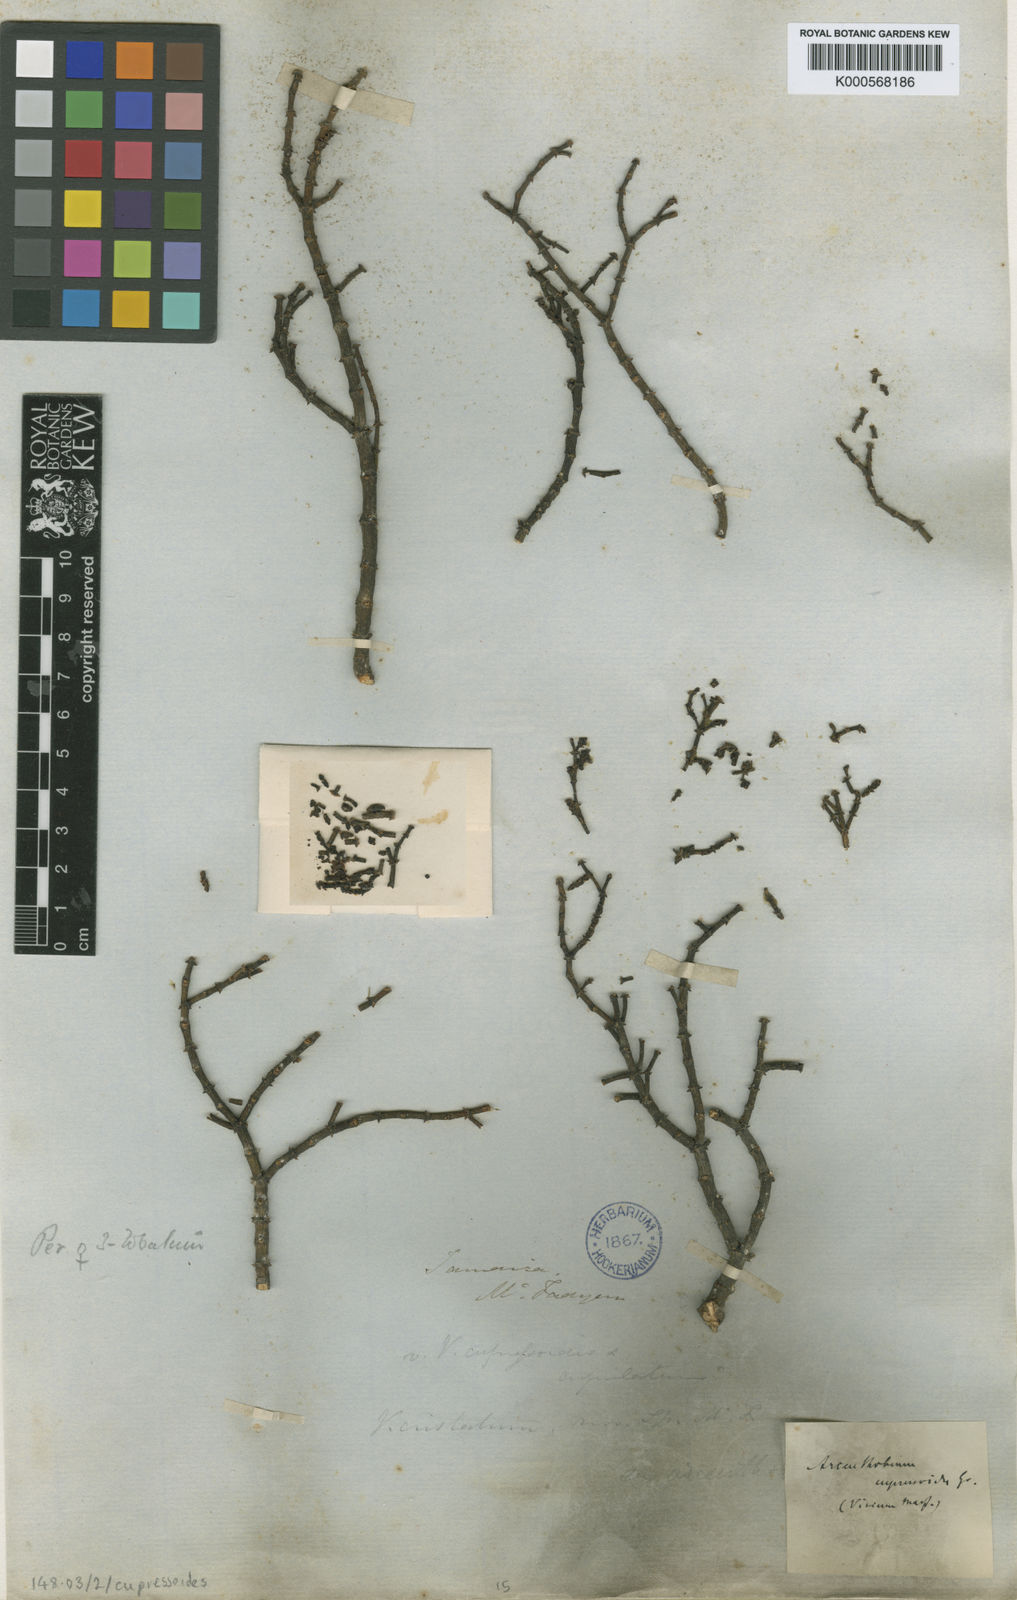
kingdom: Plantae
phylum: Tracheophyta
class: Magnoliopsida
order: Santalales
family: Viscaceae
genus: Dendrophthora
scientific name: Dendrophthora cupressoides
